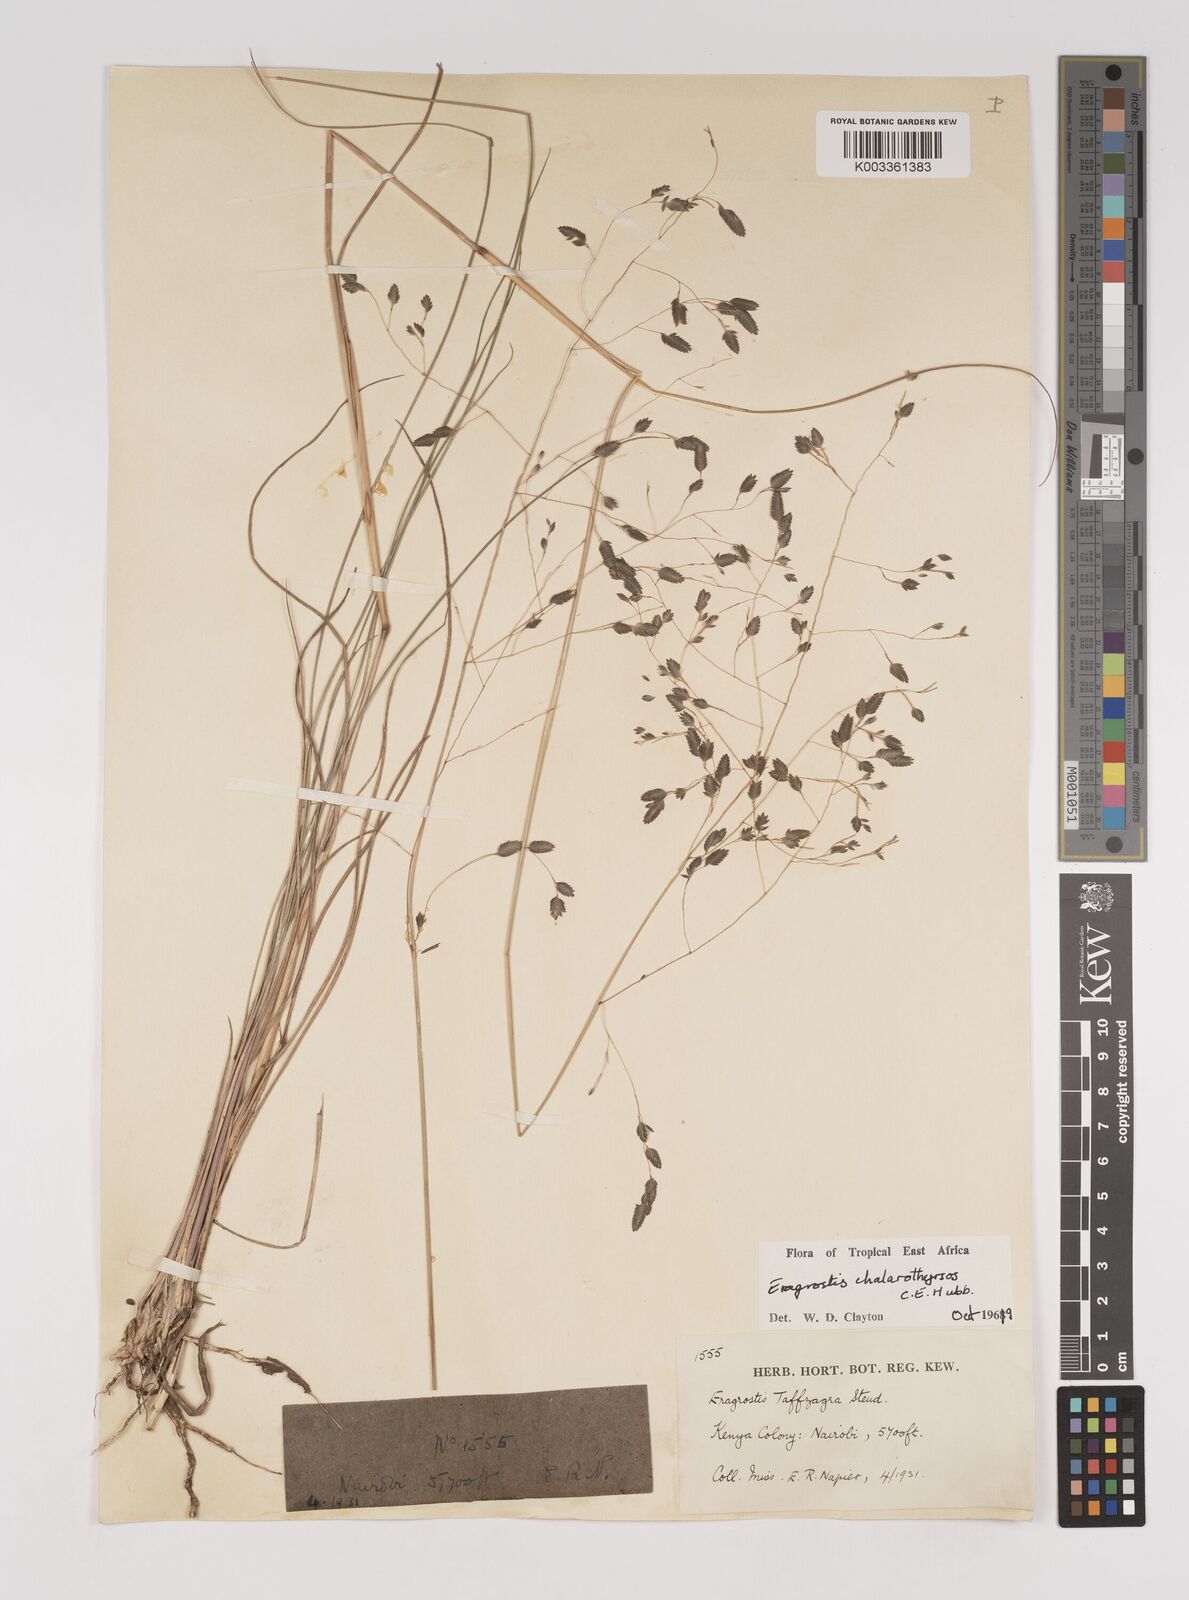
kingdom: Plantae
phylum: Tracheophyta
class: Liliopsida
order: Poales
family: Poaceae
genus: Eragrostis
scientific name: Eragrostis chalarothyrsos
